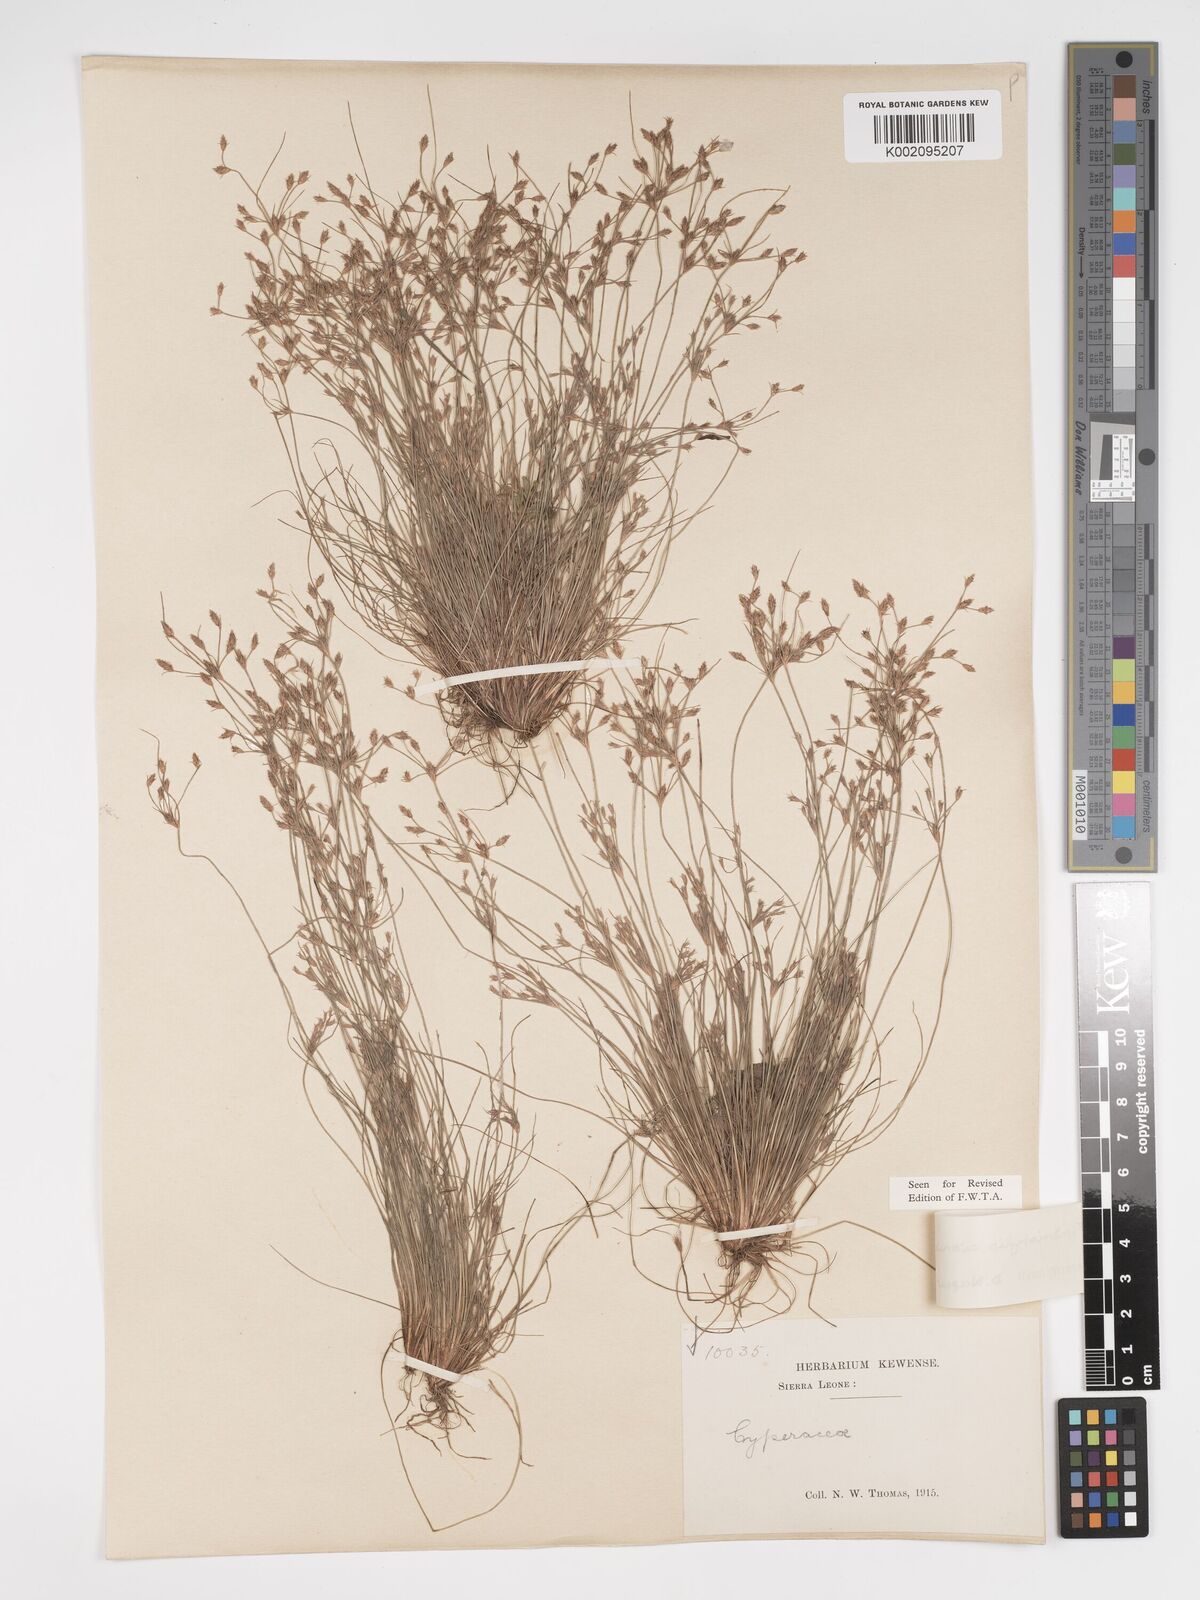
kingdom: Plantae
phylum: Tracheophyta
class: Liliopsida
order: Poales
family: Cyperaceae
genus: Bulbostylis
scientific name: Bulbostylis cioniana
